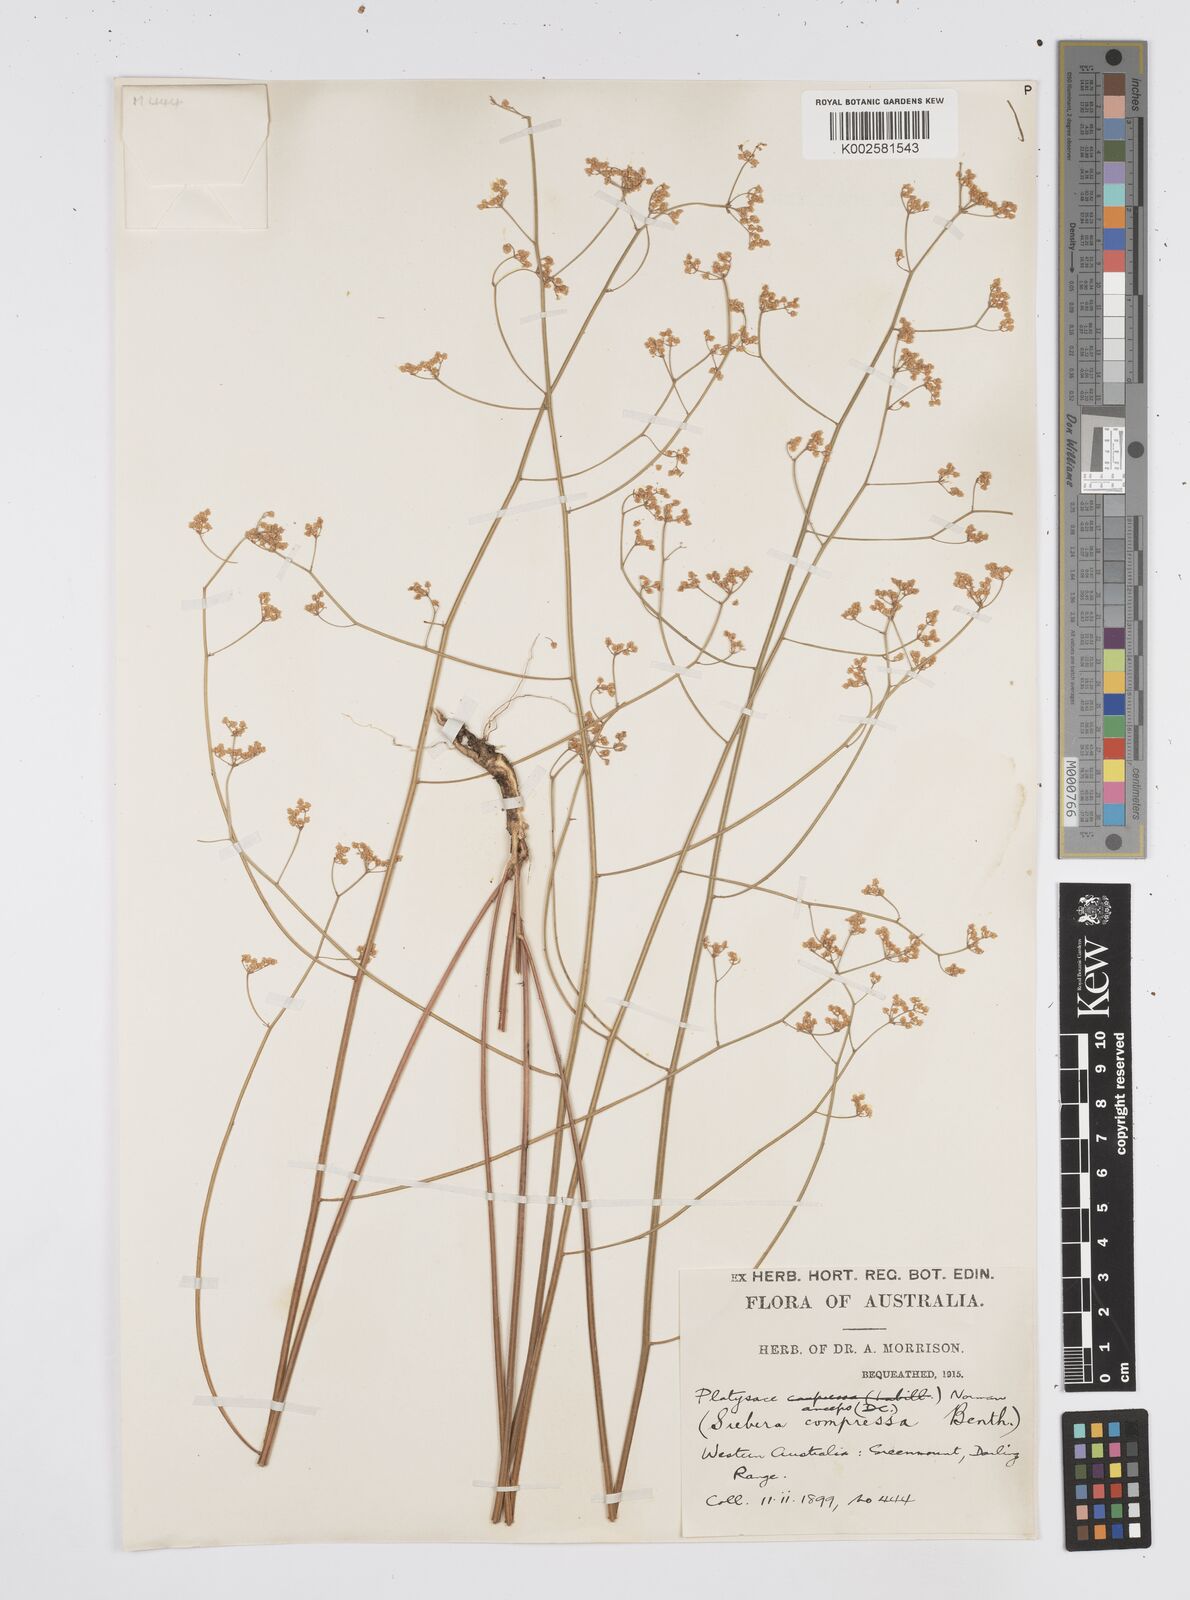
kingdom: Plantae
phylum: Tracheophyta
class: Magnoliopsida
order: Apiales
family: Apiaceae
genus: Centella
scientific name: Centella
